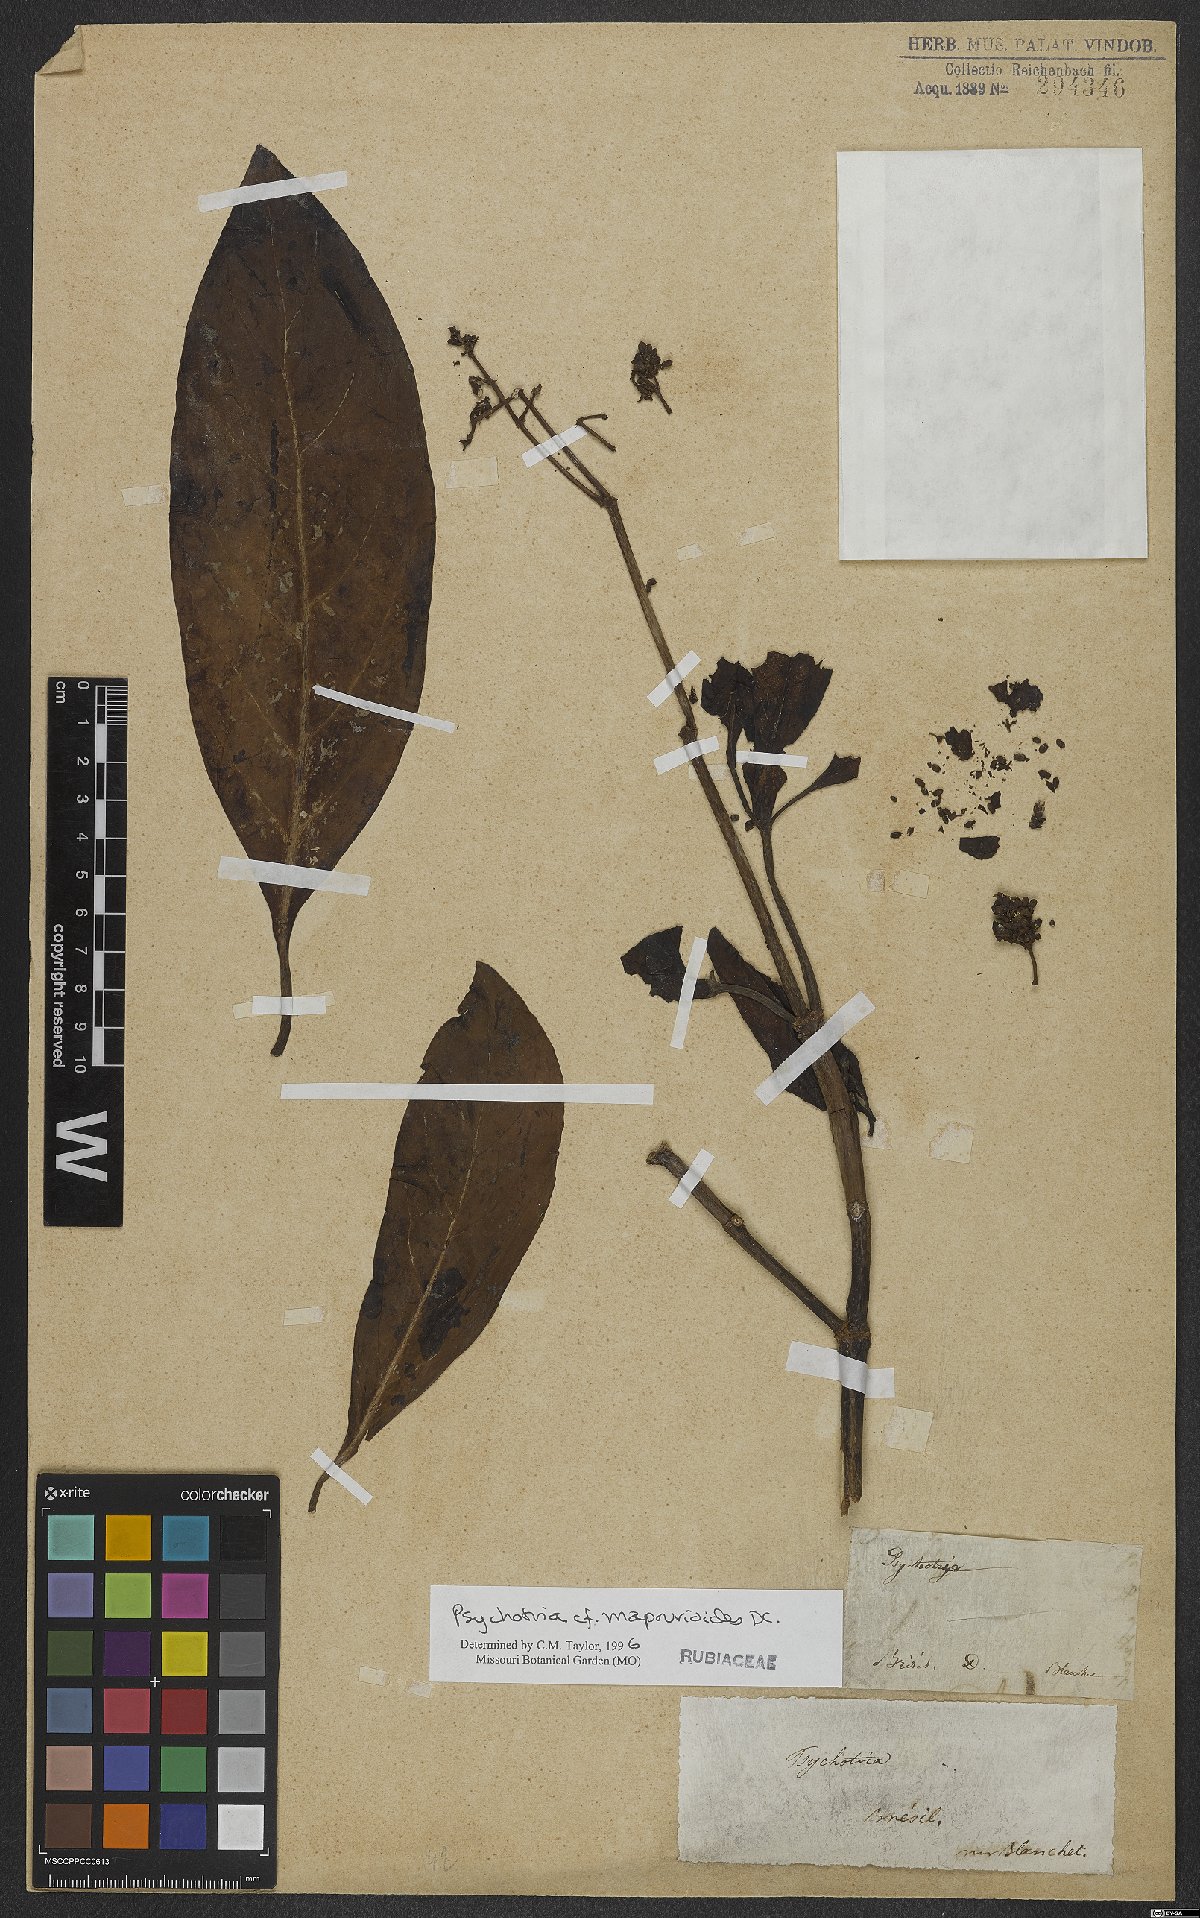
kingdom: Plantae
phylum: Tracheophyta
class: Magnoliopsida
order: Gentianales
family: Rubiaceae
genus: Psychotria
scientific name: Psychotria pedunculosa
